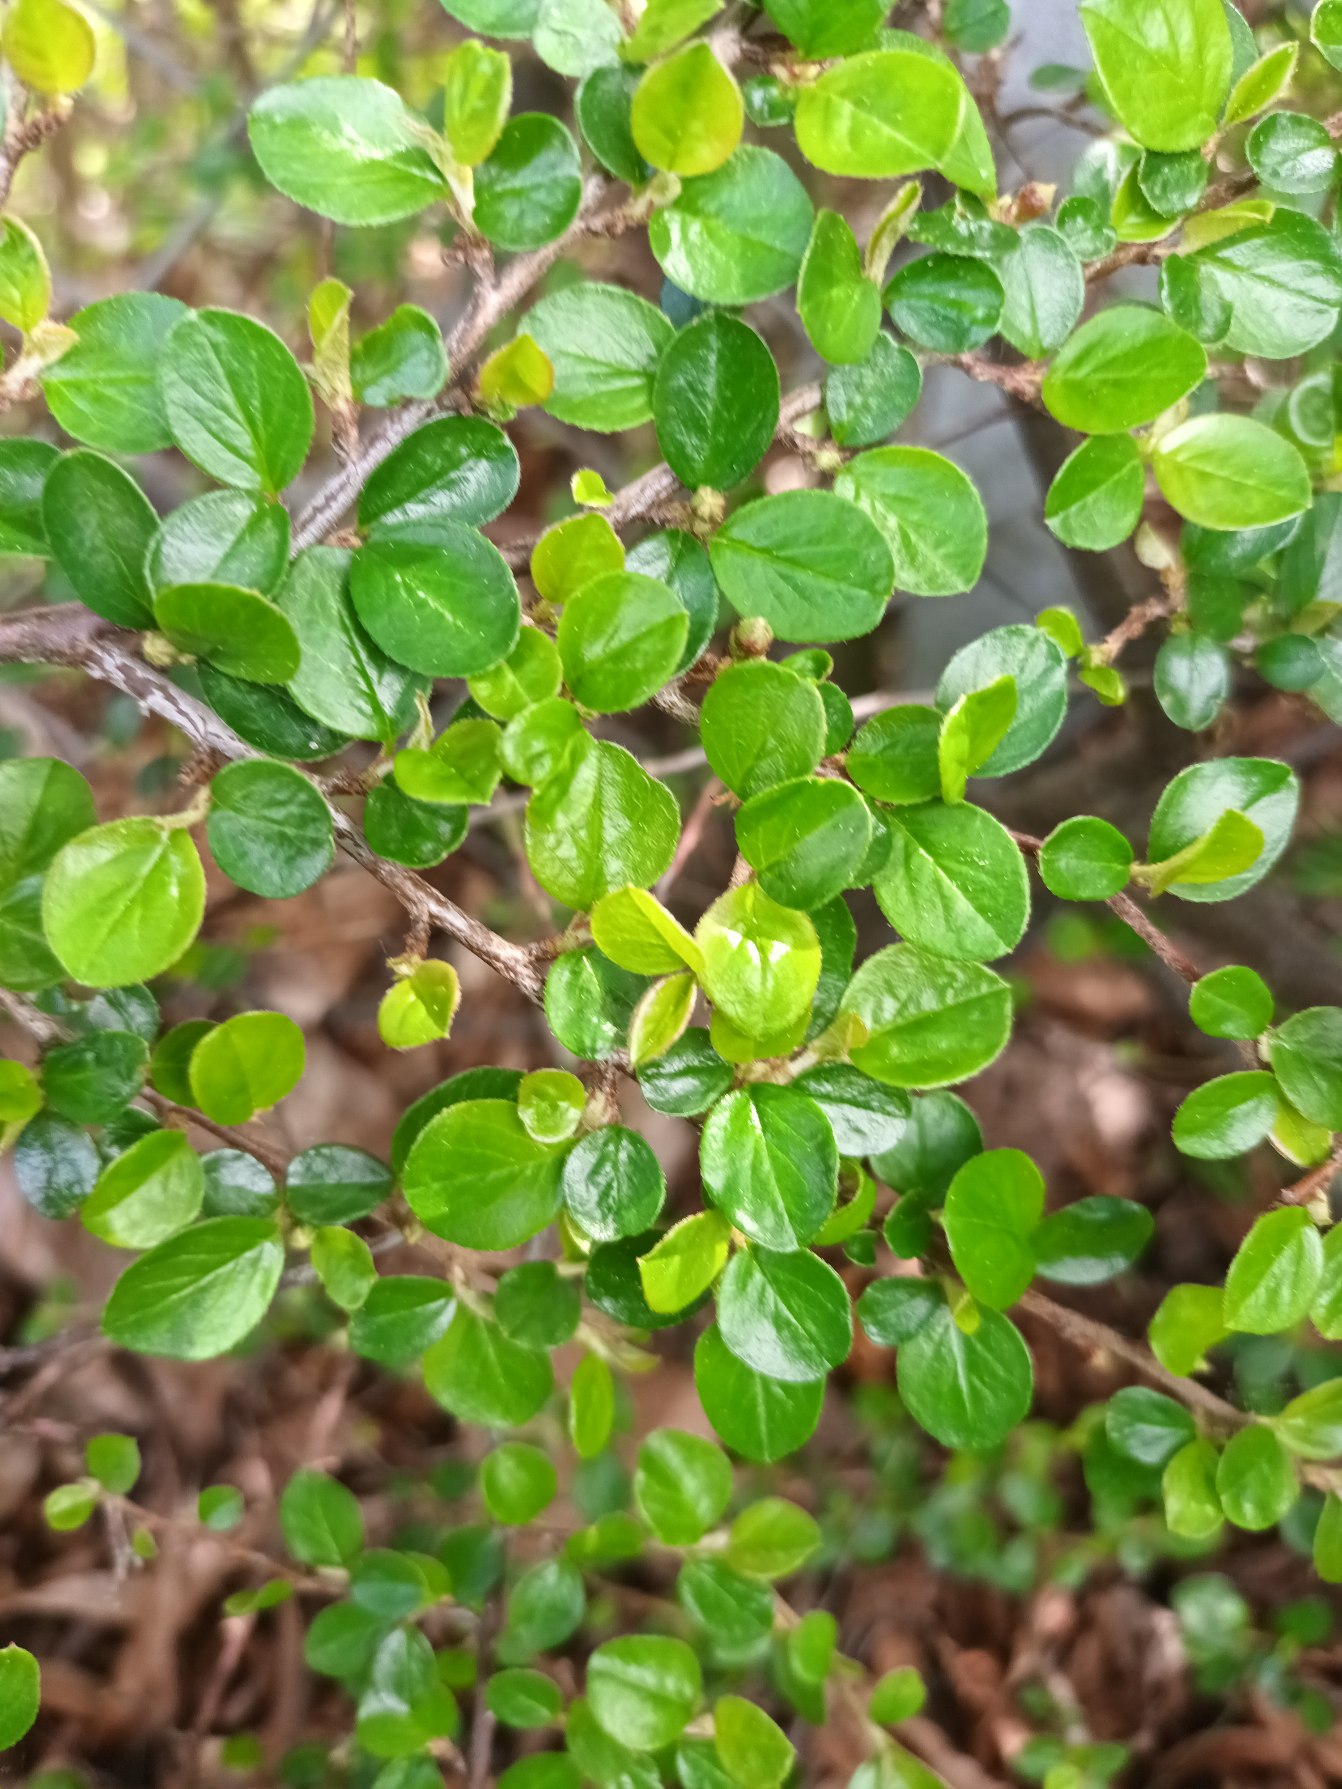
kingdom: Plantae
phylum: Tracheophyta
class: Magnoliopsida
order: Rosales
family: Rosaceae
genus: Cotoneaster
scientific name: Cotoneaster hjelmqvistii
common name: Hjelmqvists dværgmispel
